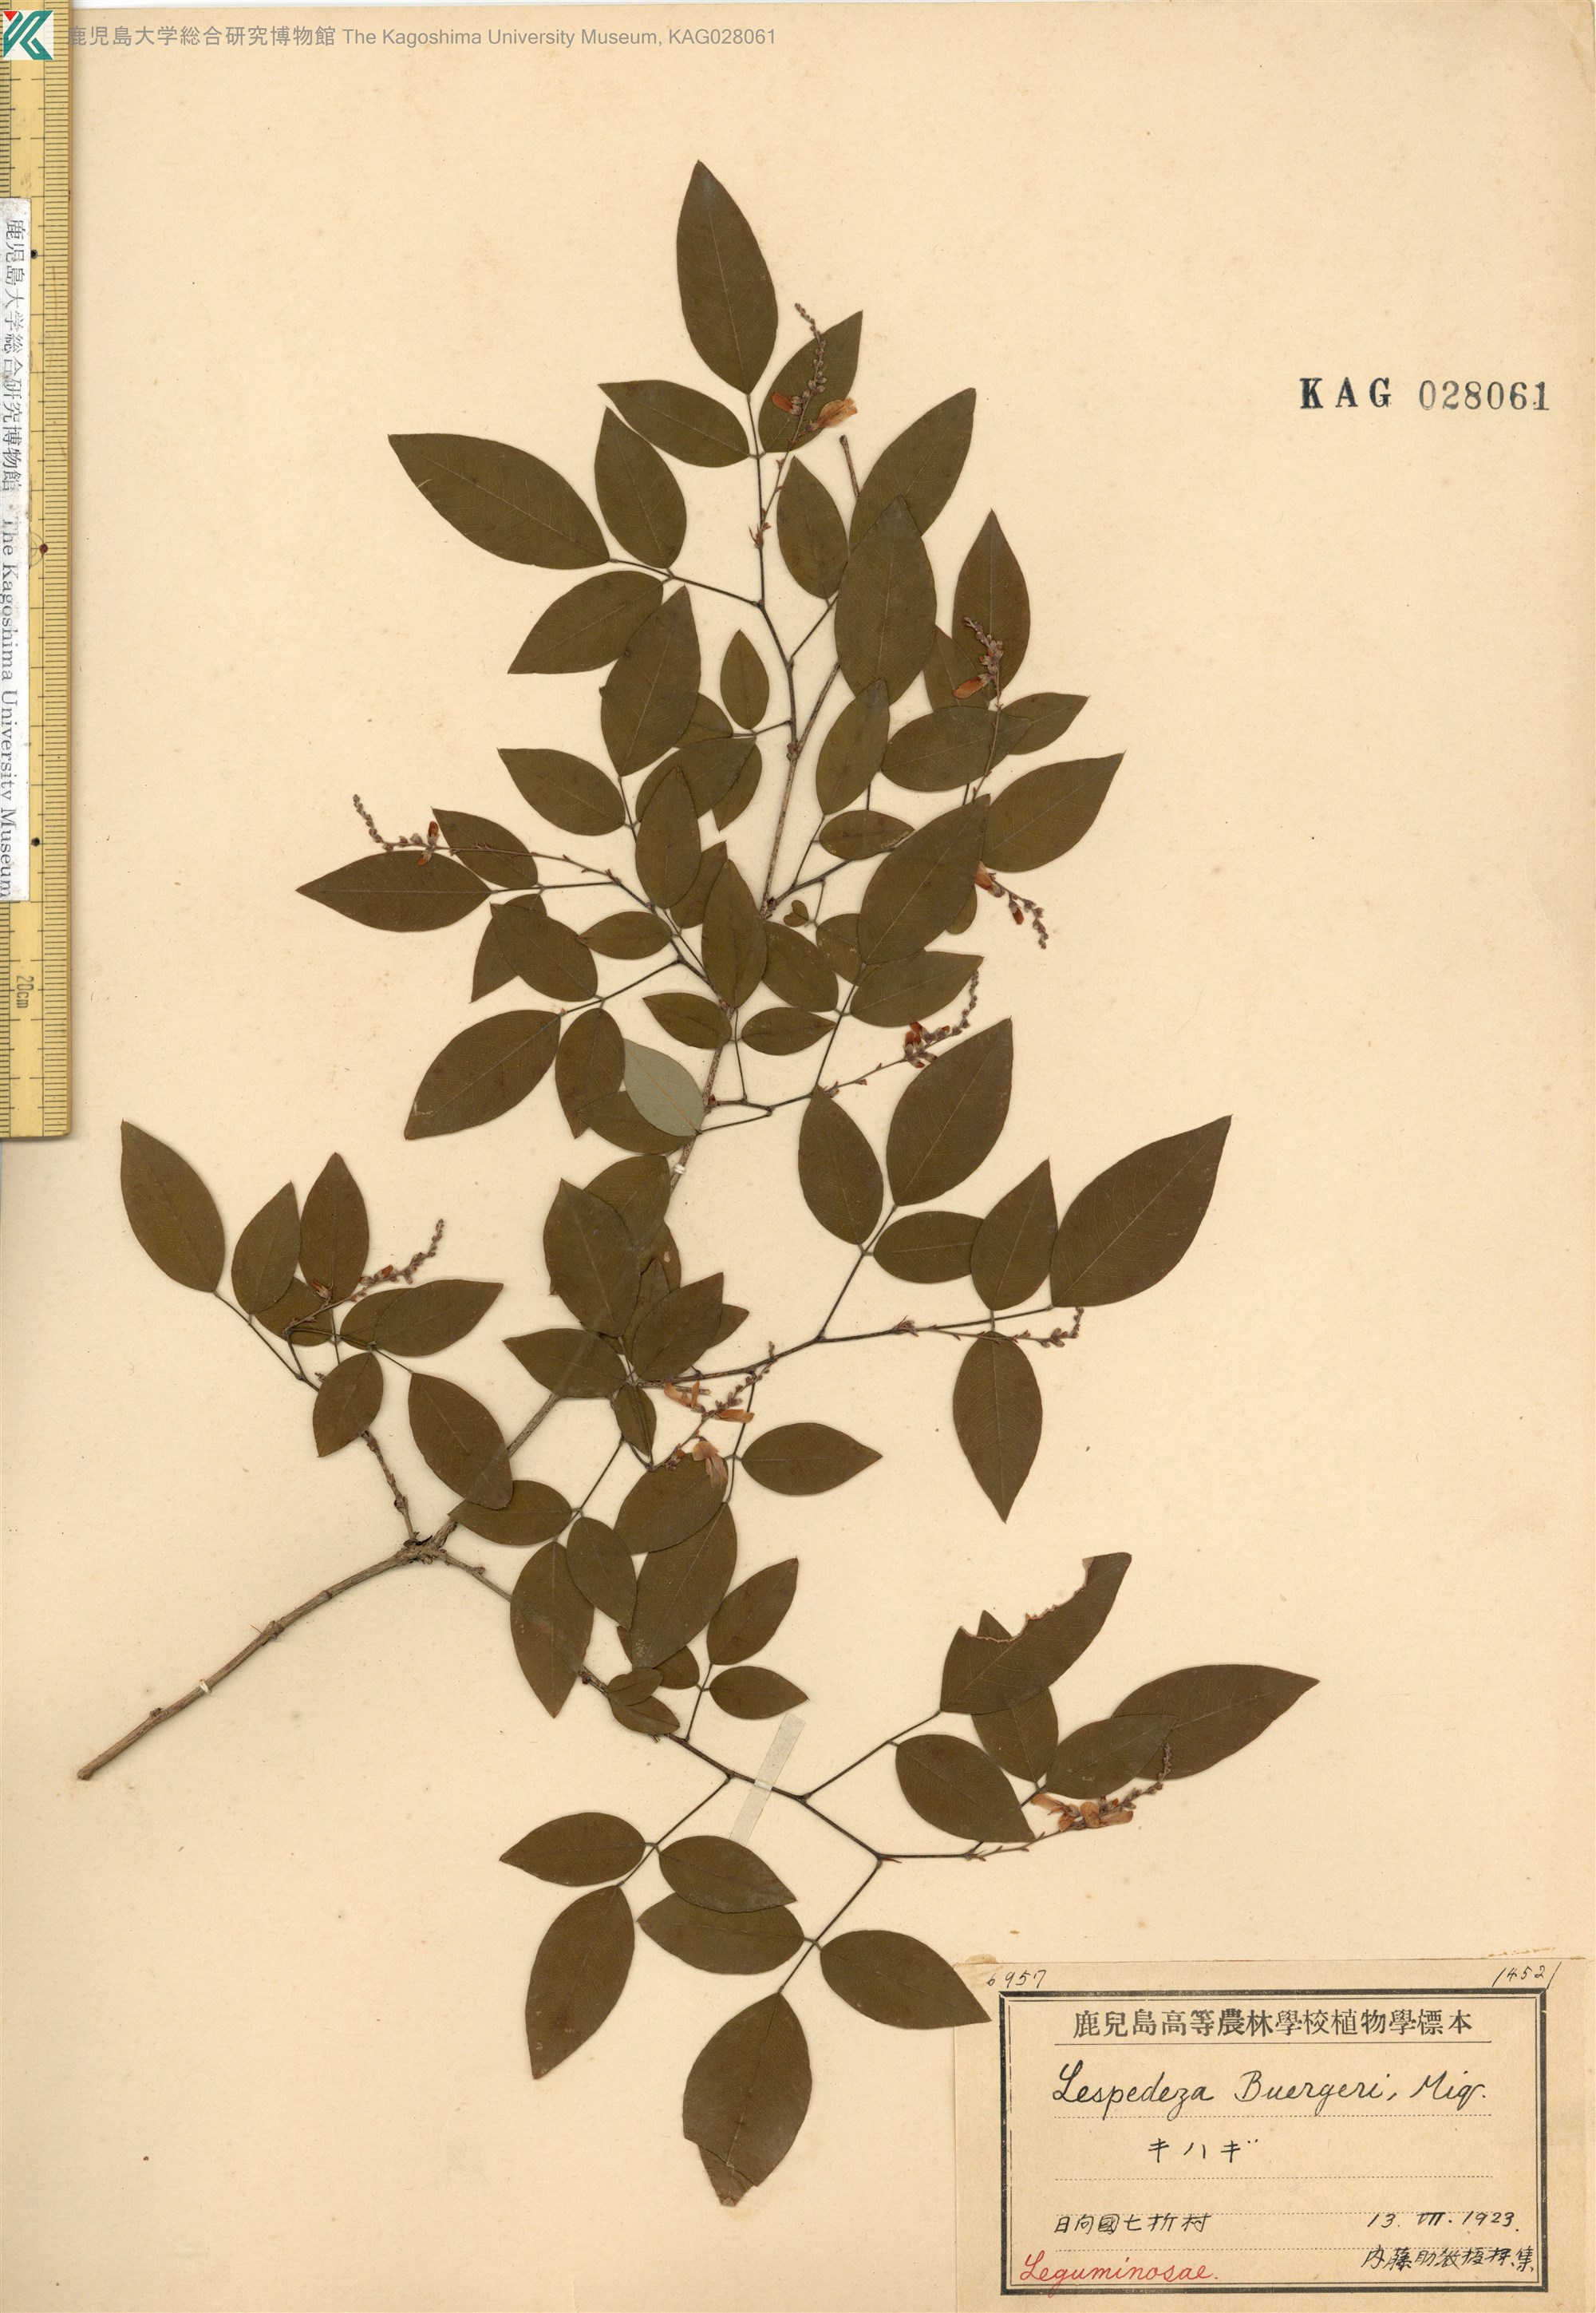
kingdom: Plantae
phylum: Tracheophyta
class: Magnoliopsida
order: Fabales
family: Fabaceae
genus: Lespedeza
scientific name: Lespedeza buergeri
